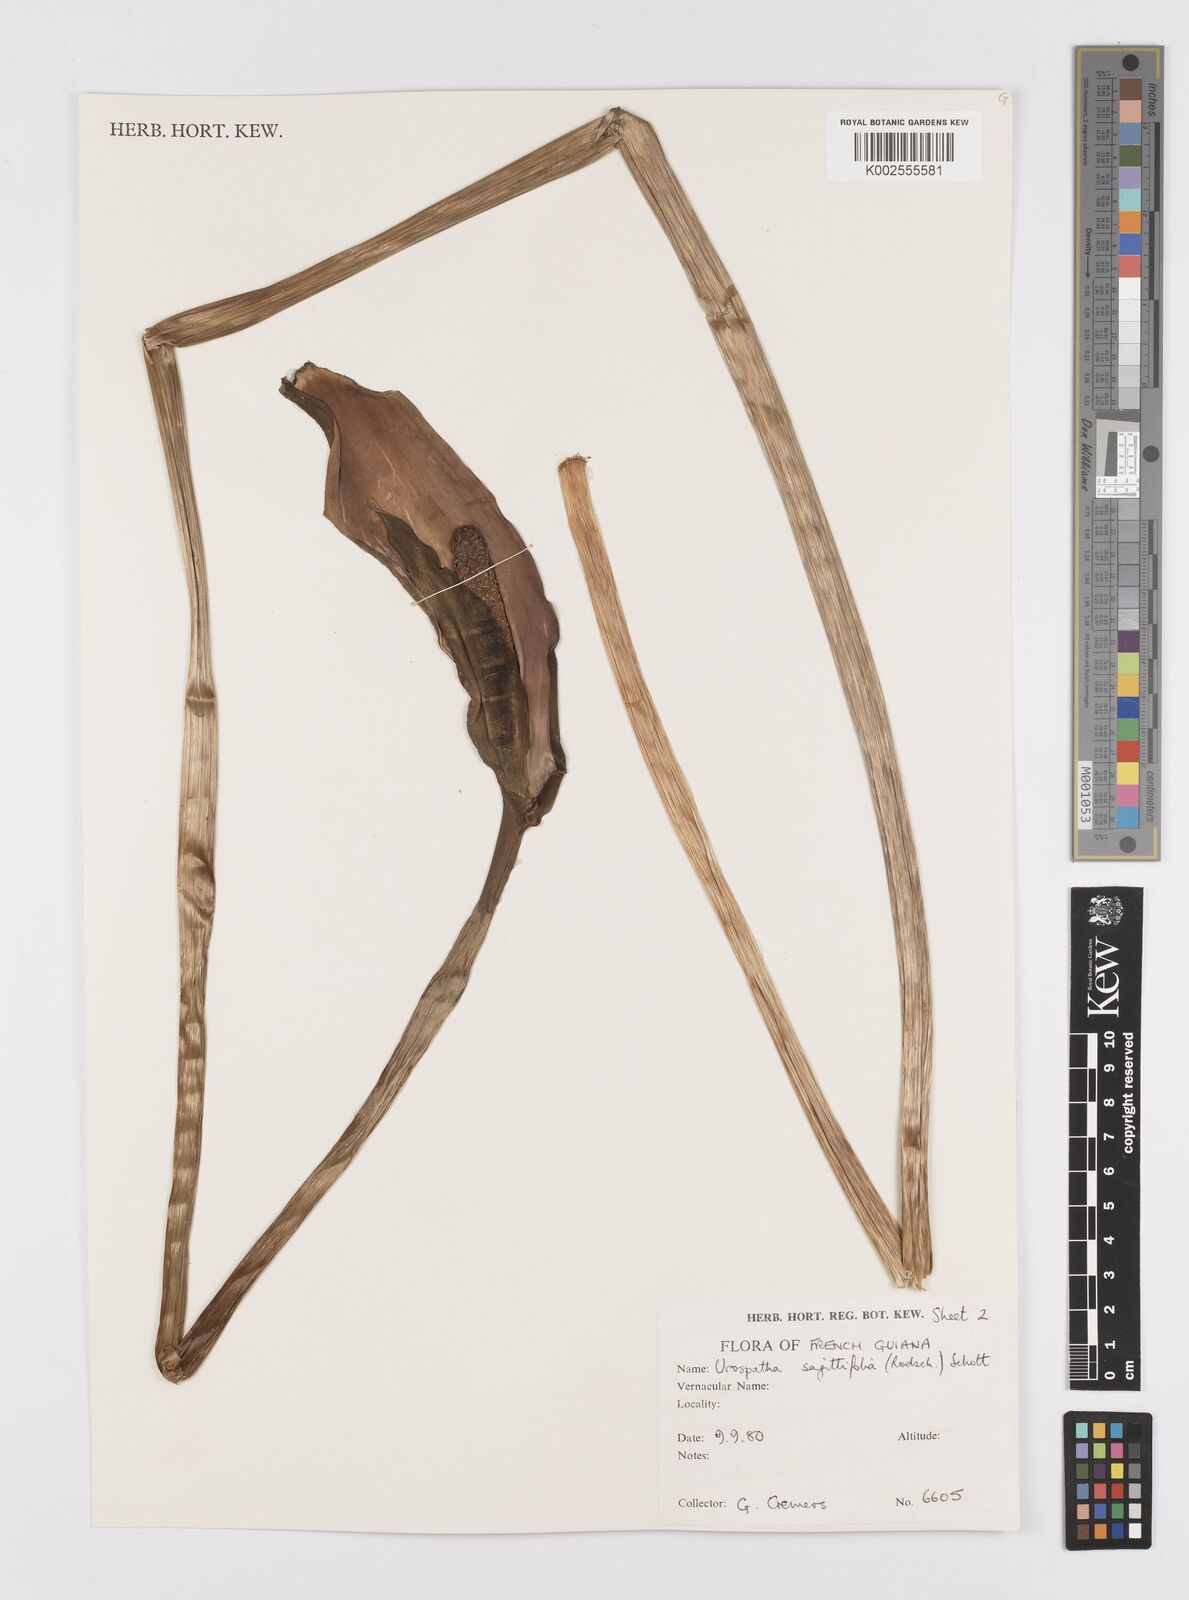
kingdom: Plantae
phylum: Tracheophyta
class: Liliopsida
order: Alismatales
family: Araceae
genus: Urospatha
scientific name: Urospatha sagittifolia
